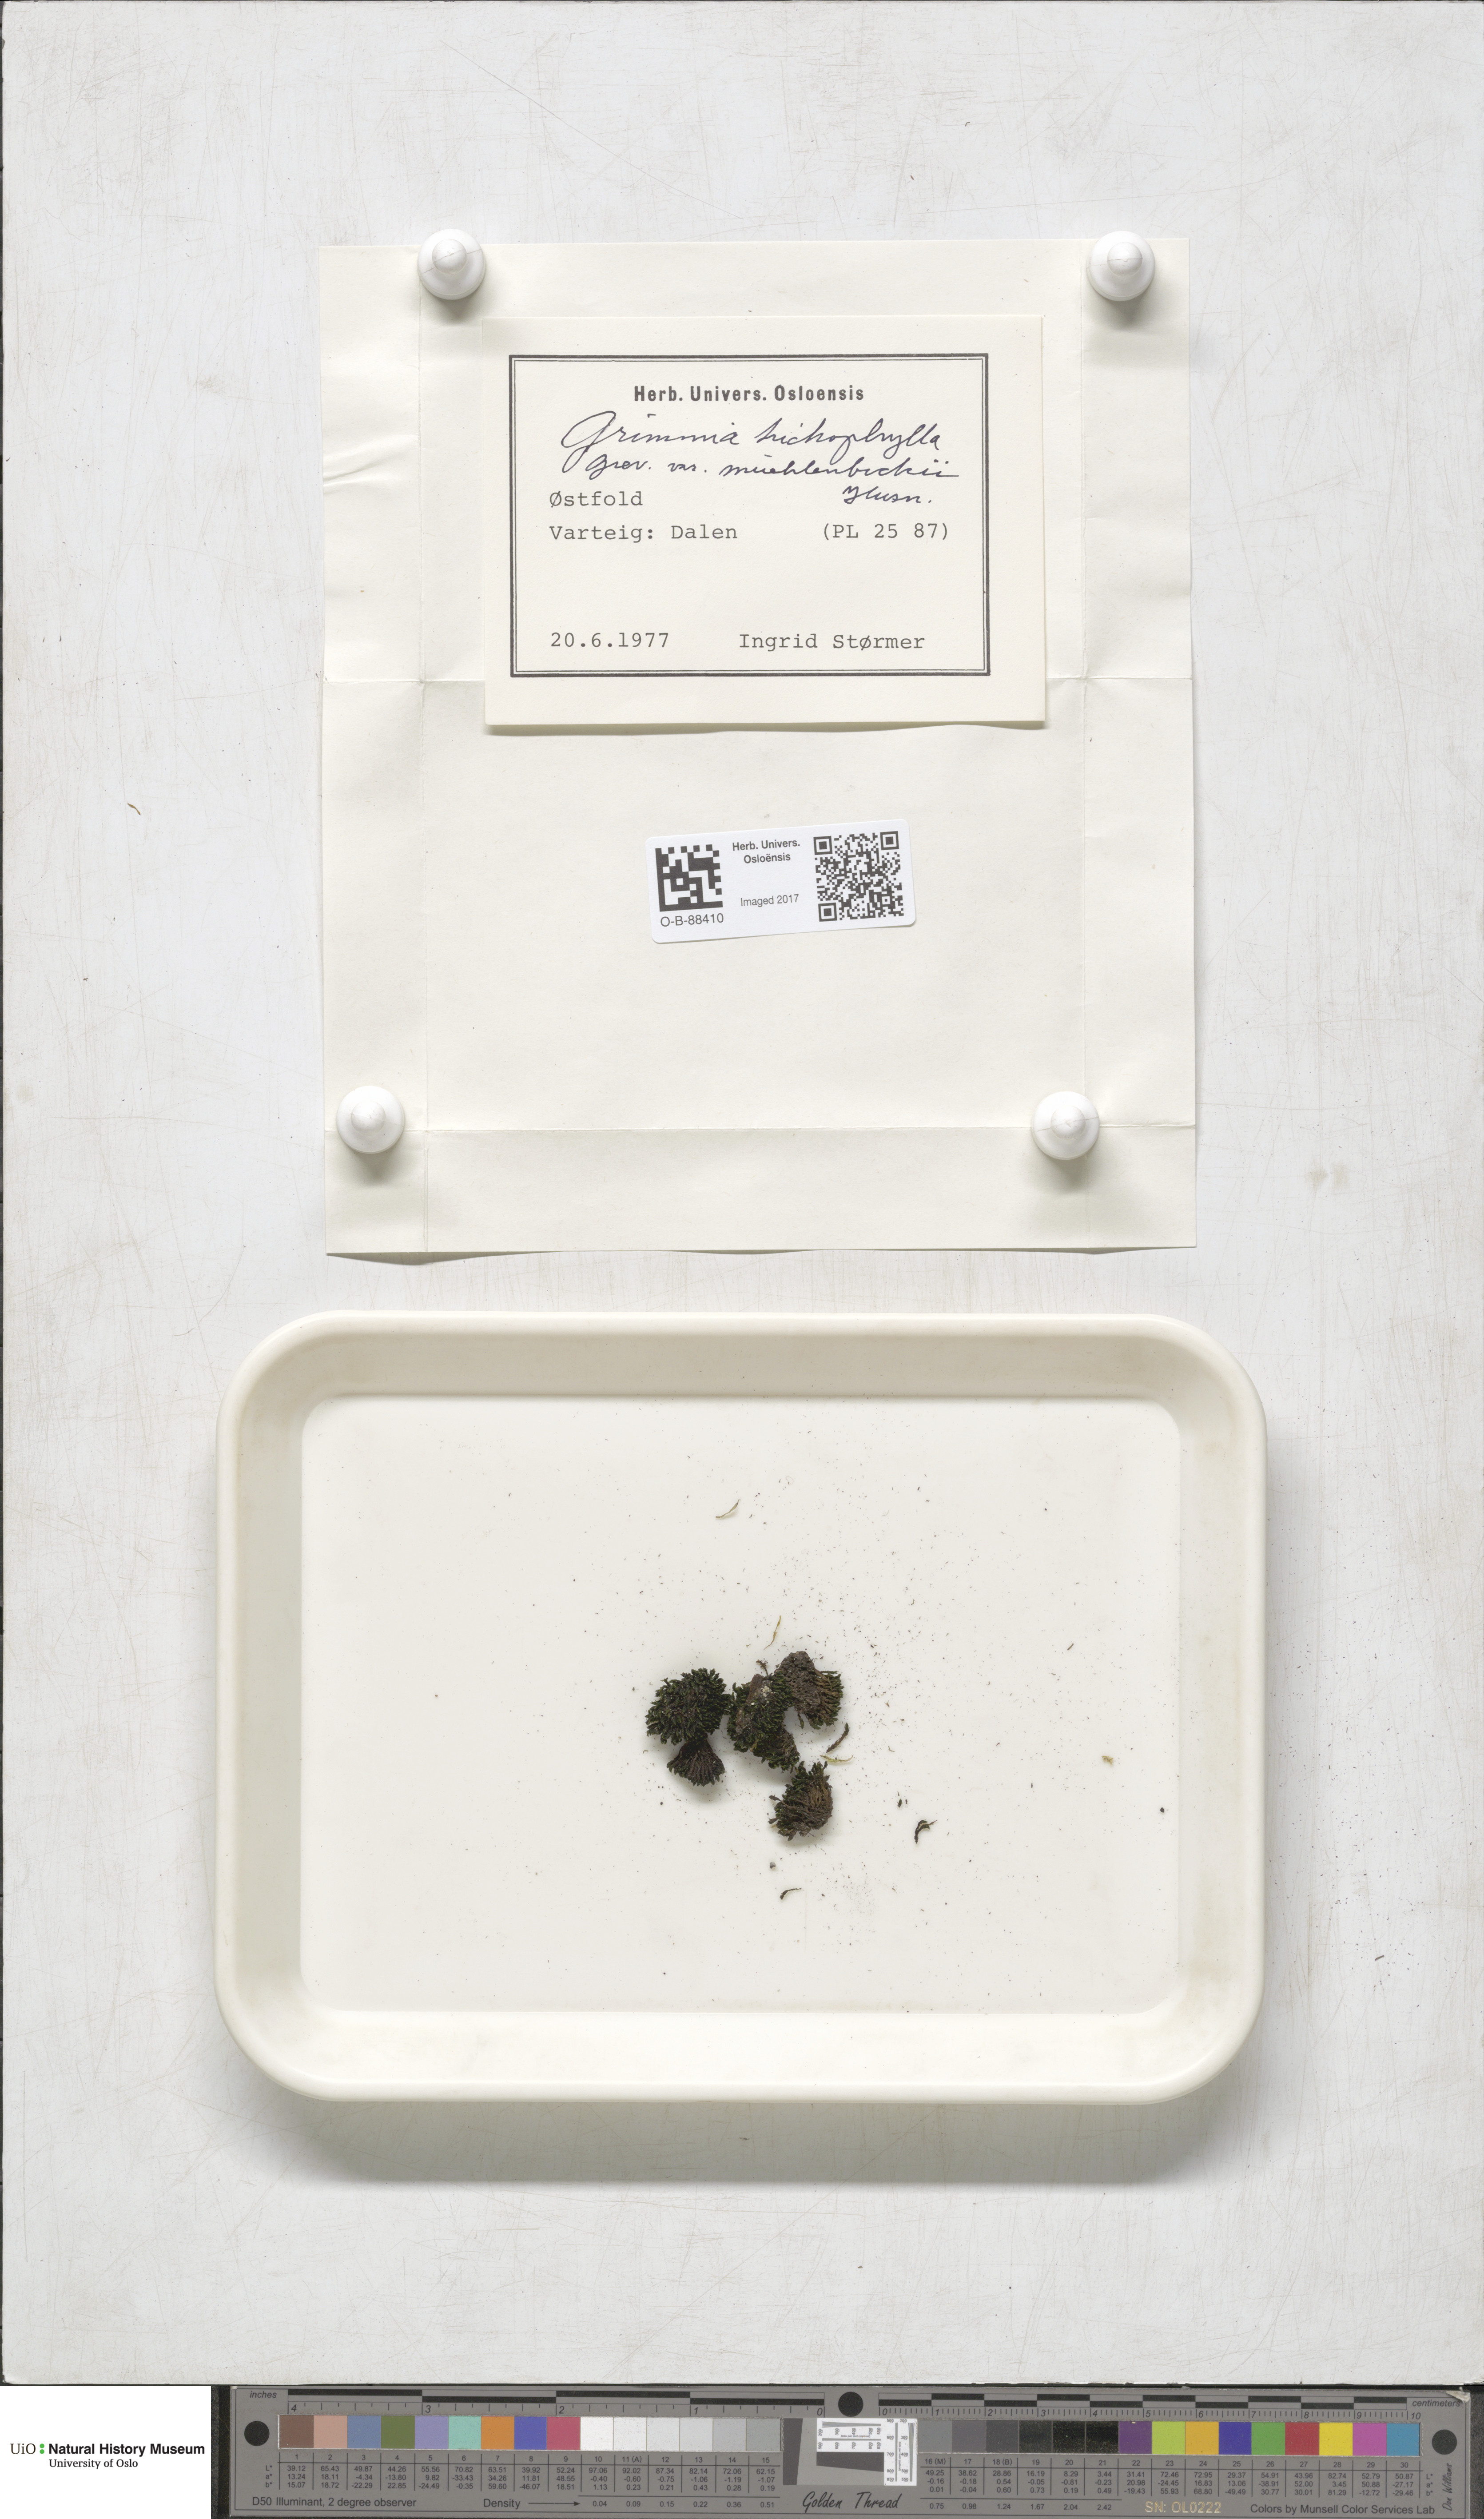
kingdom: Plantae
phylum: Bryophyta
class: Bryopsida
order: Grimmiales
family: Grimmiaceae
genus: Grimmia
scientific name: Grimmia trichophylla
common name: Hair-pointed grimmia
